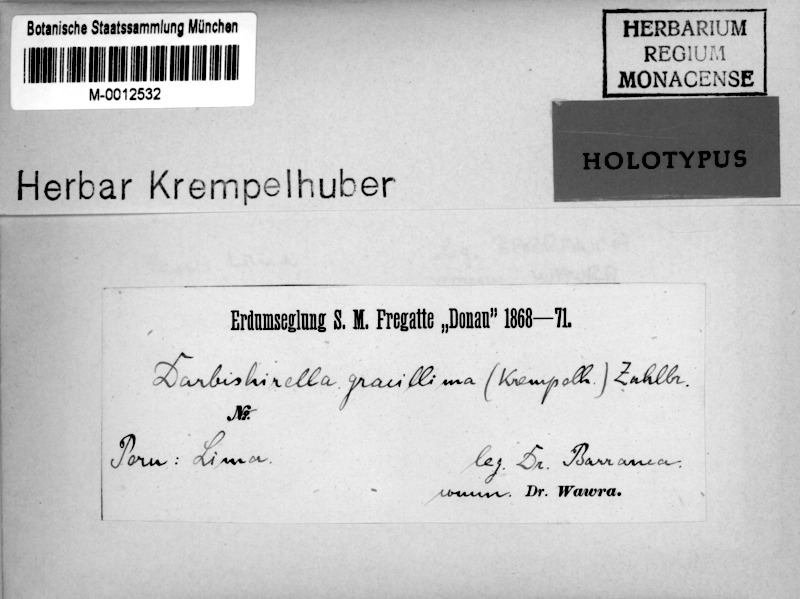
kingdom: Fungi
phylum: Ascomycota
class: Arthoniomycetes
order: Arthoniales
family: Opegraphaceae
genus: Pentagenella
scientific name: Pentagenella gracillima
